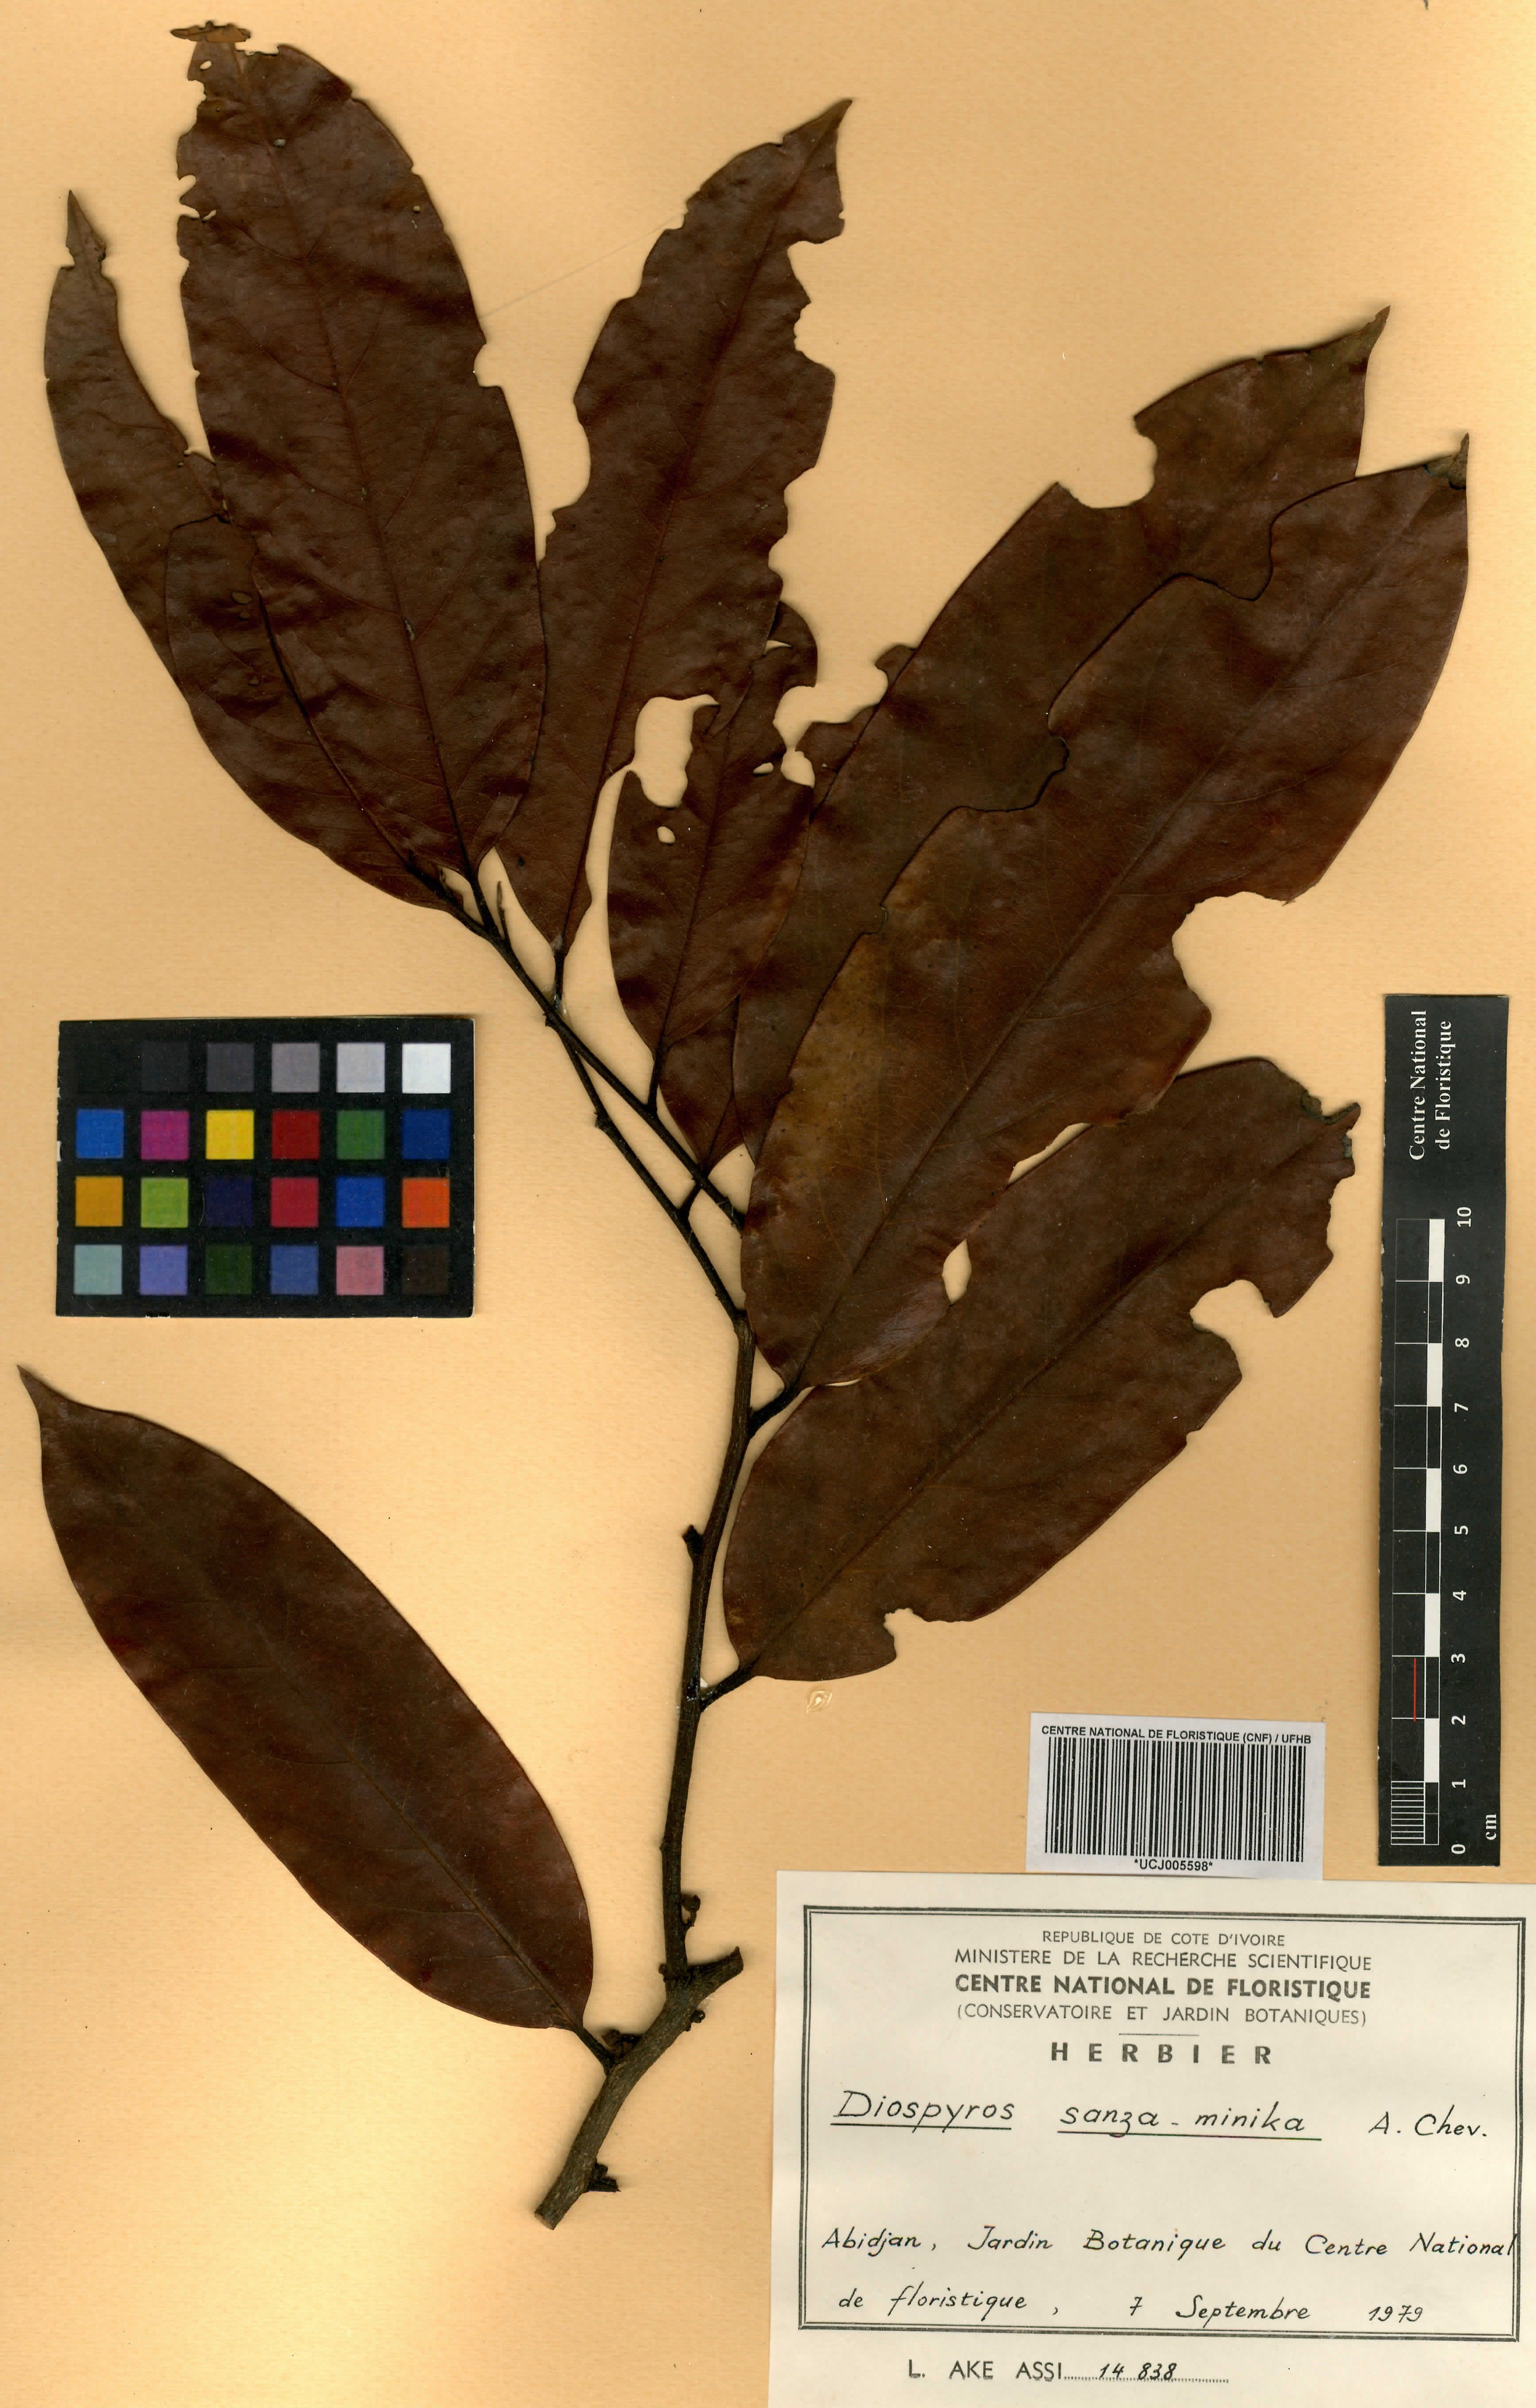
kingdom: Plantae
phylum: Tracheophyta
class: Magnoliopsida
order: Ericales
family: Ebenaceae
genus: Diospyros
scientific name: Diospyros sanza-minika
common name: Flint bark
